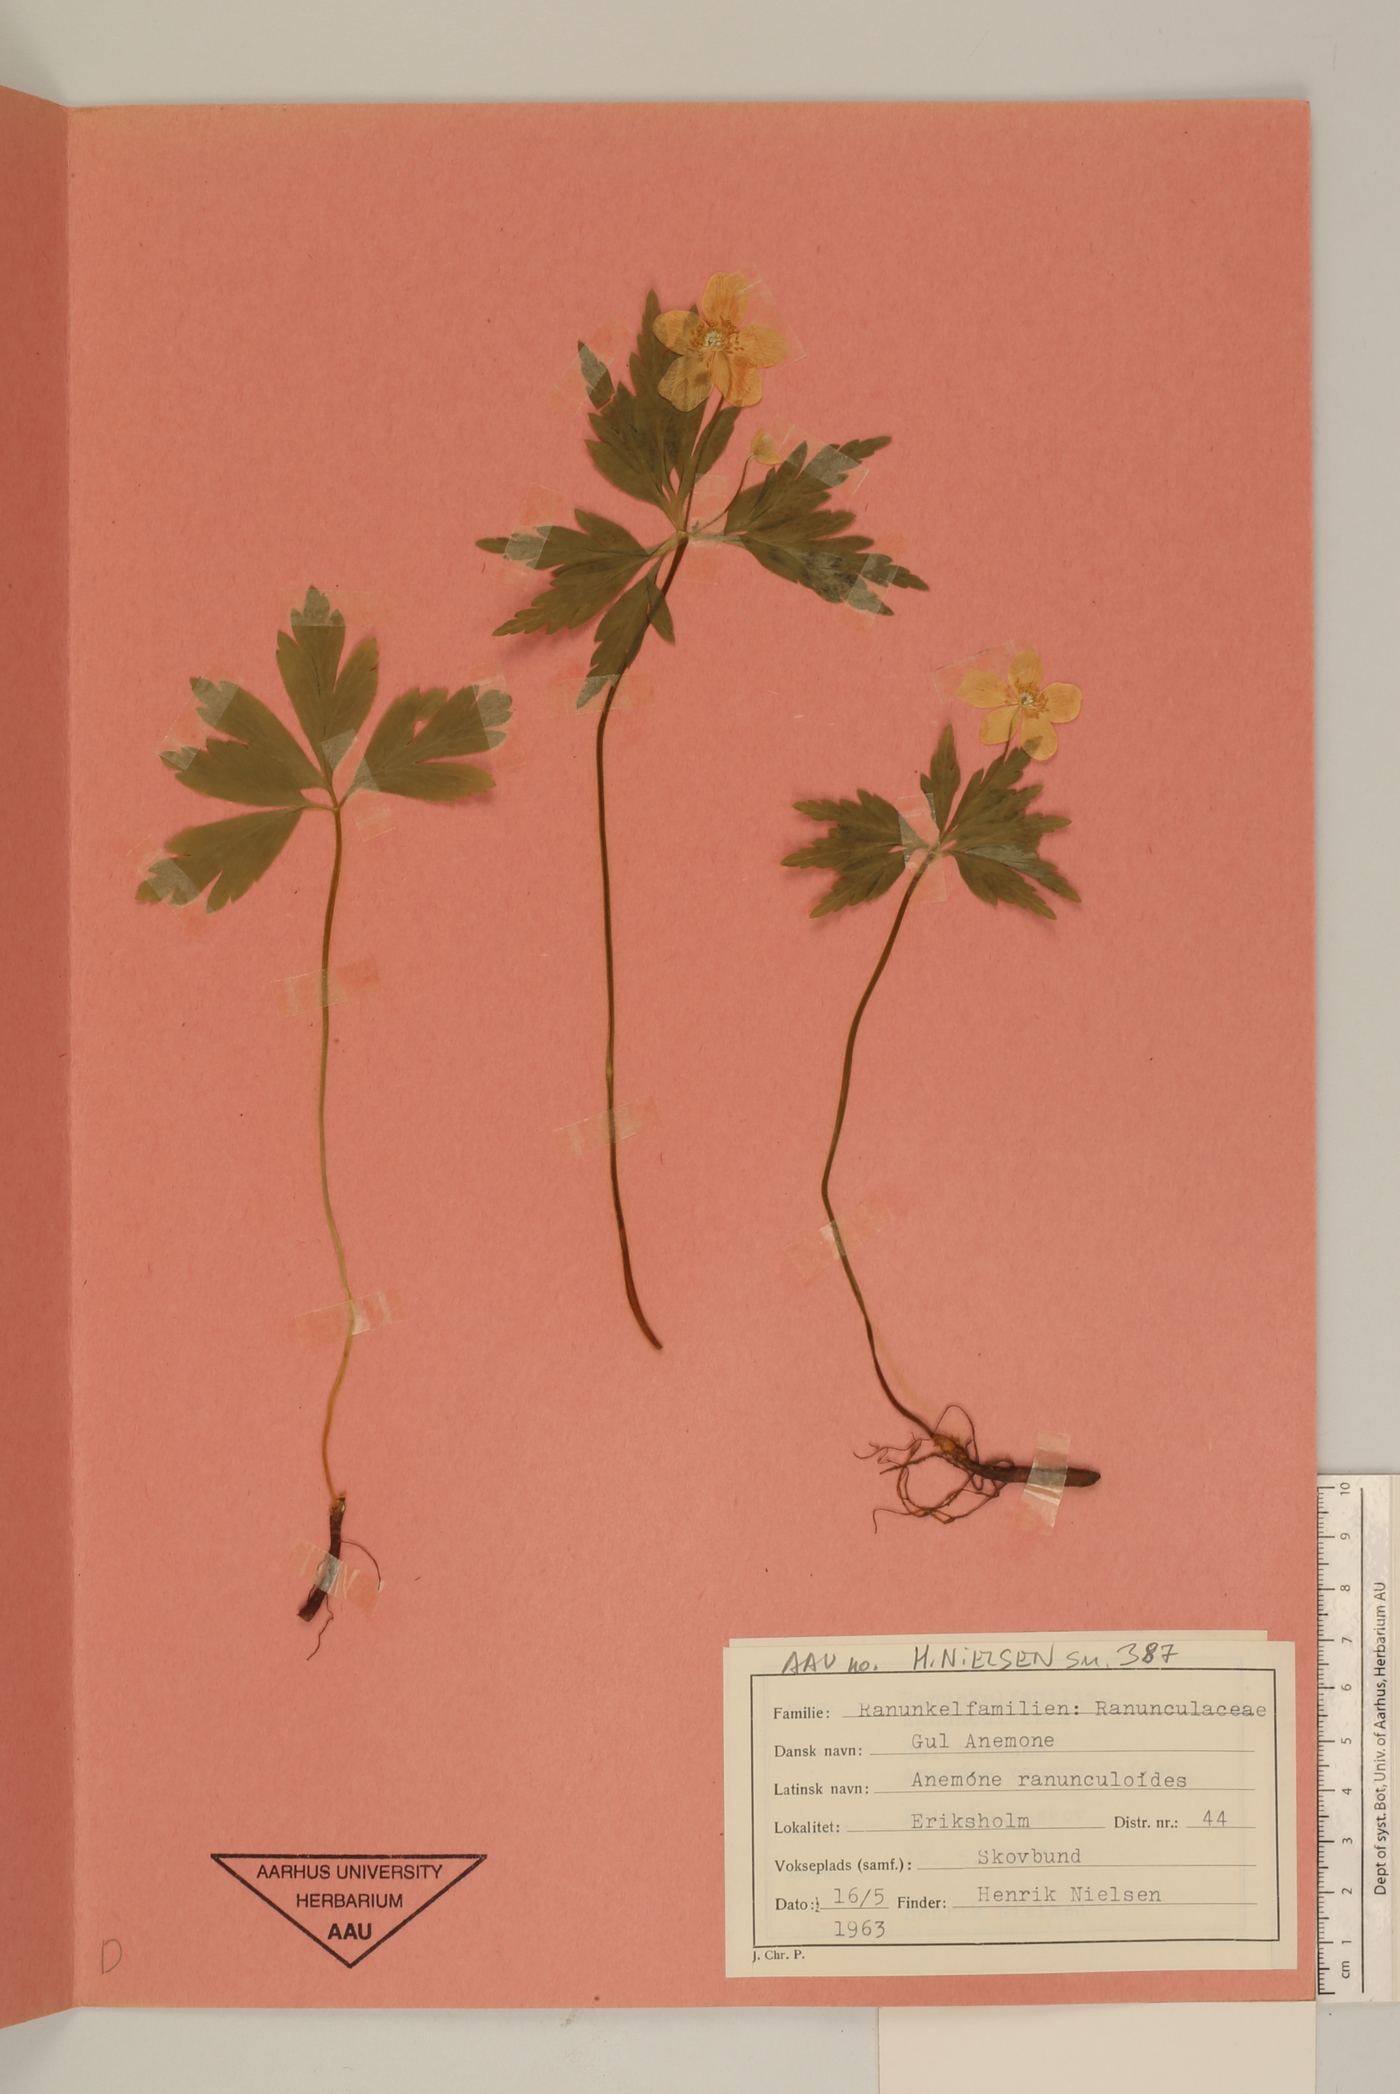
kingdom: Plantae
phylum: Tracheophyta
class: Magnoliopsida
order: Ranunculales
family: Ranunculaceae
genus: Anemone
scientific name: Anemone ranunculoides
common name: Yellow anemone
